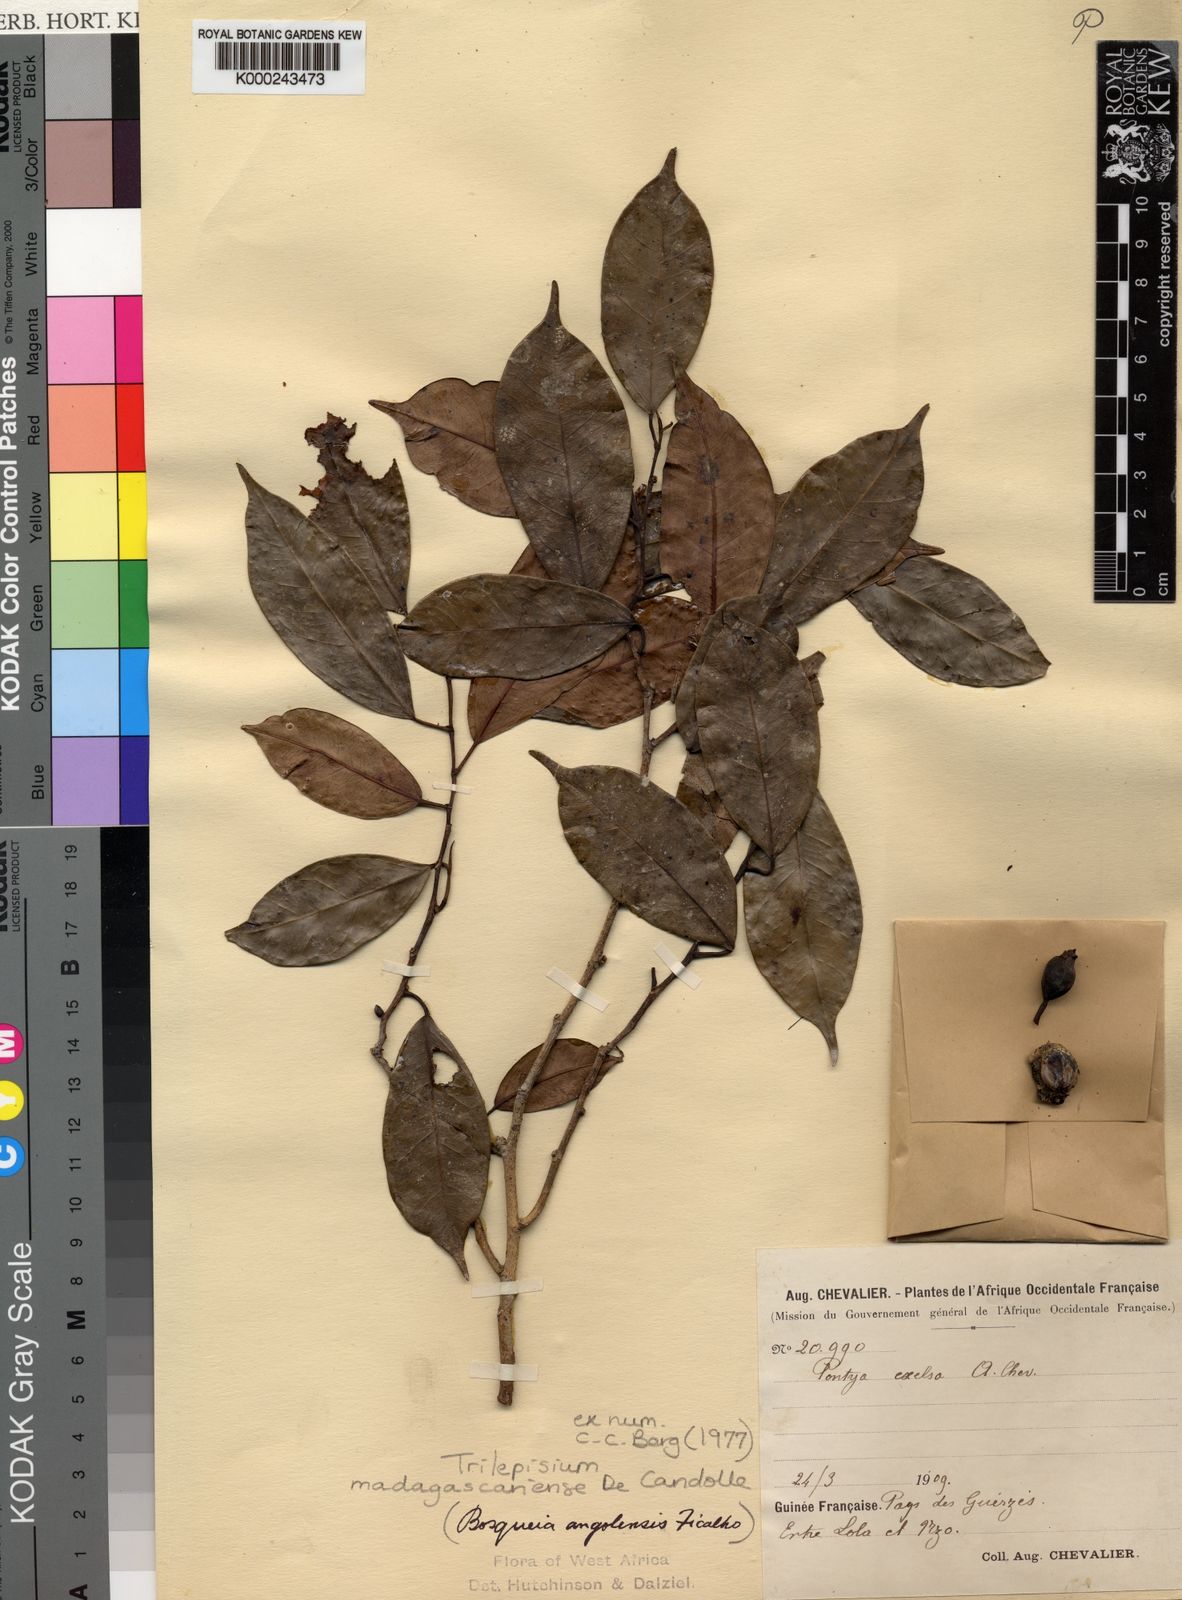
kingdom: Plantae
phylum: Tracheophyta
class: Magnoliopsida
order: Rosales
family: Moraceae
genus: Trilepisium
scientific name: Trilepisium madagascariense
